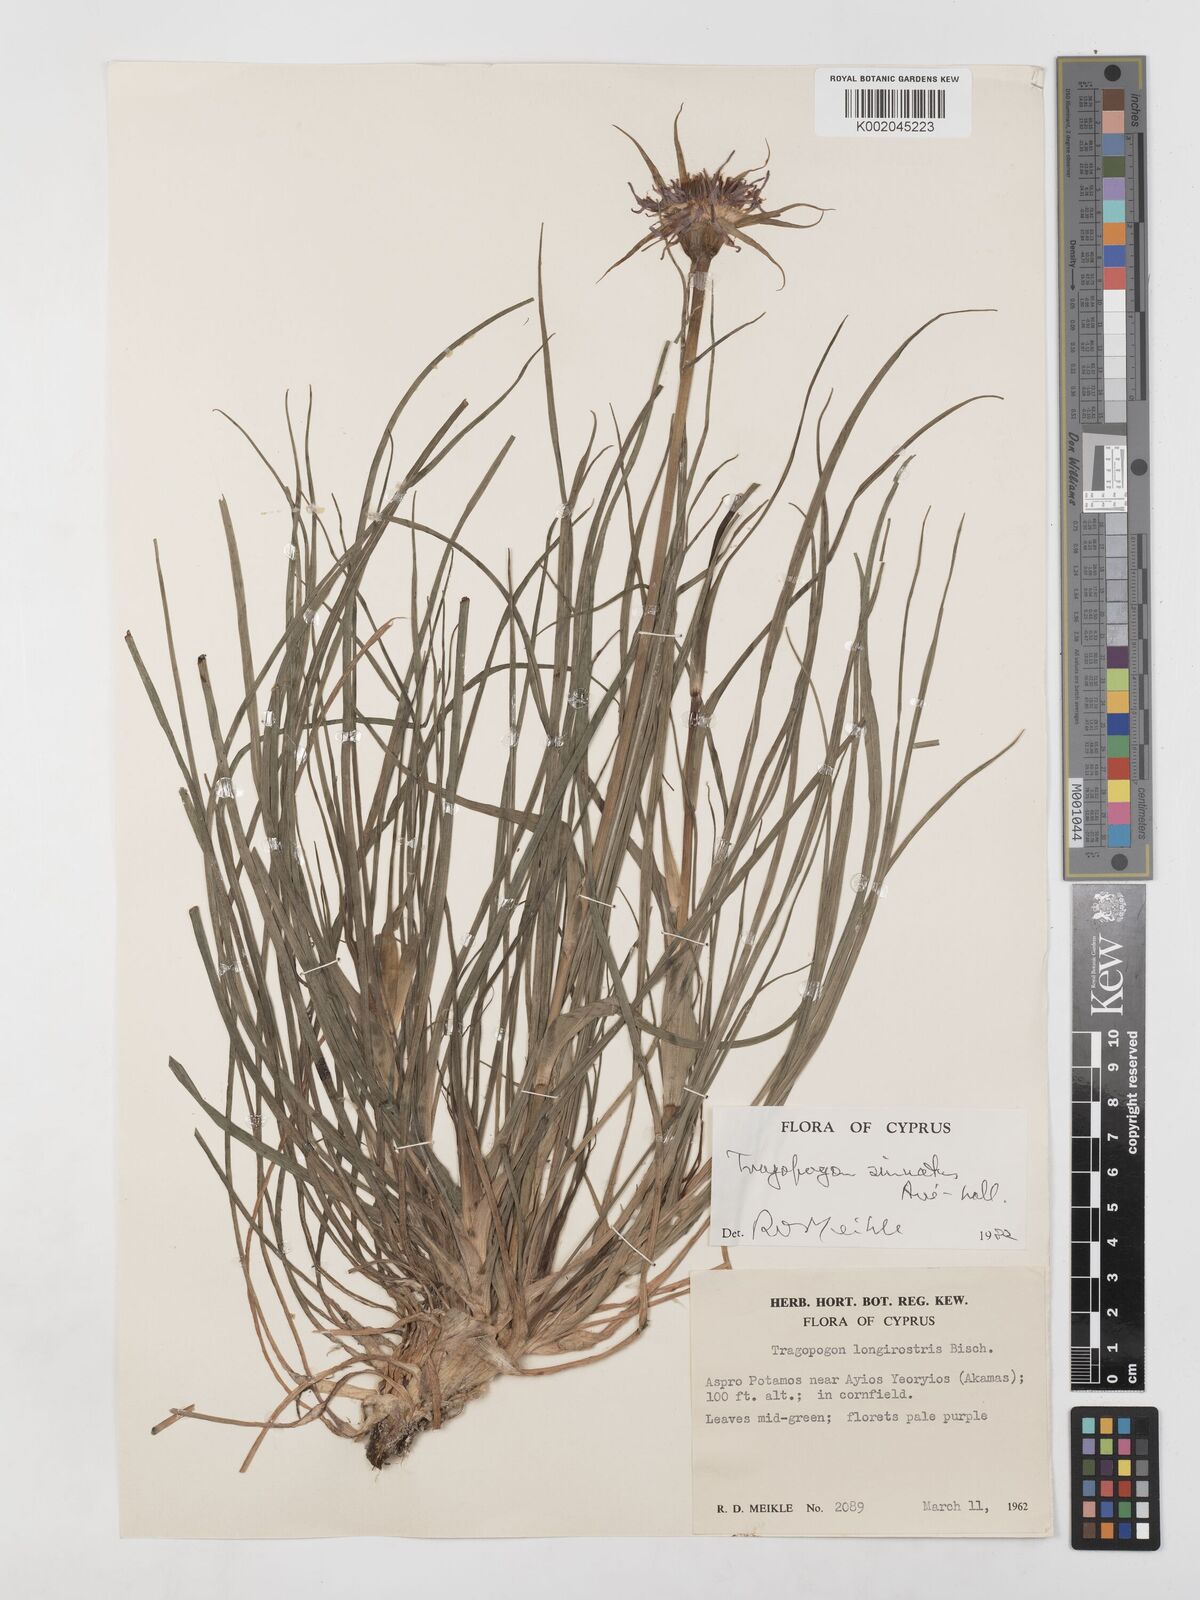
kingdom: Plantae
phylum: Tracheophyta
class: Magnoliopsida
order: Asterales
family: Asteraceae
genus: Tragopogon
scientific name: Tragopogon porrifolius
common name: Salsify
